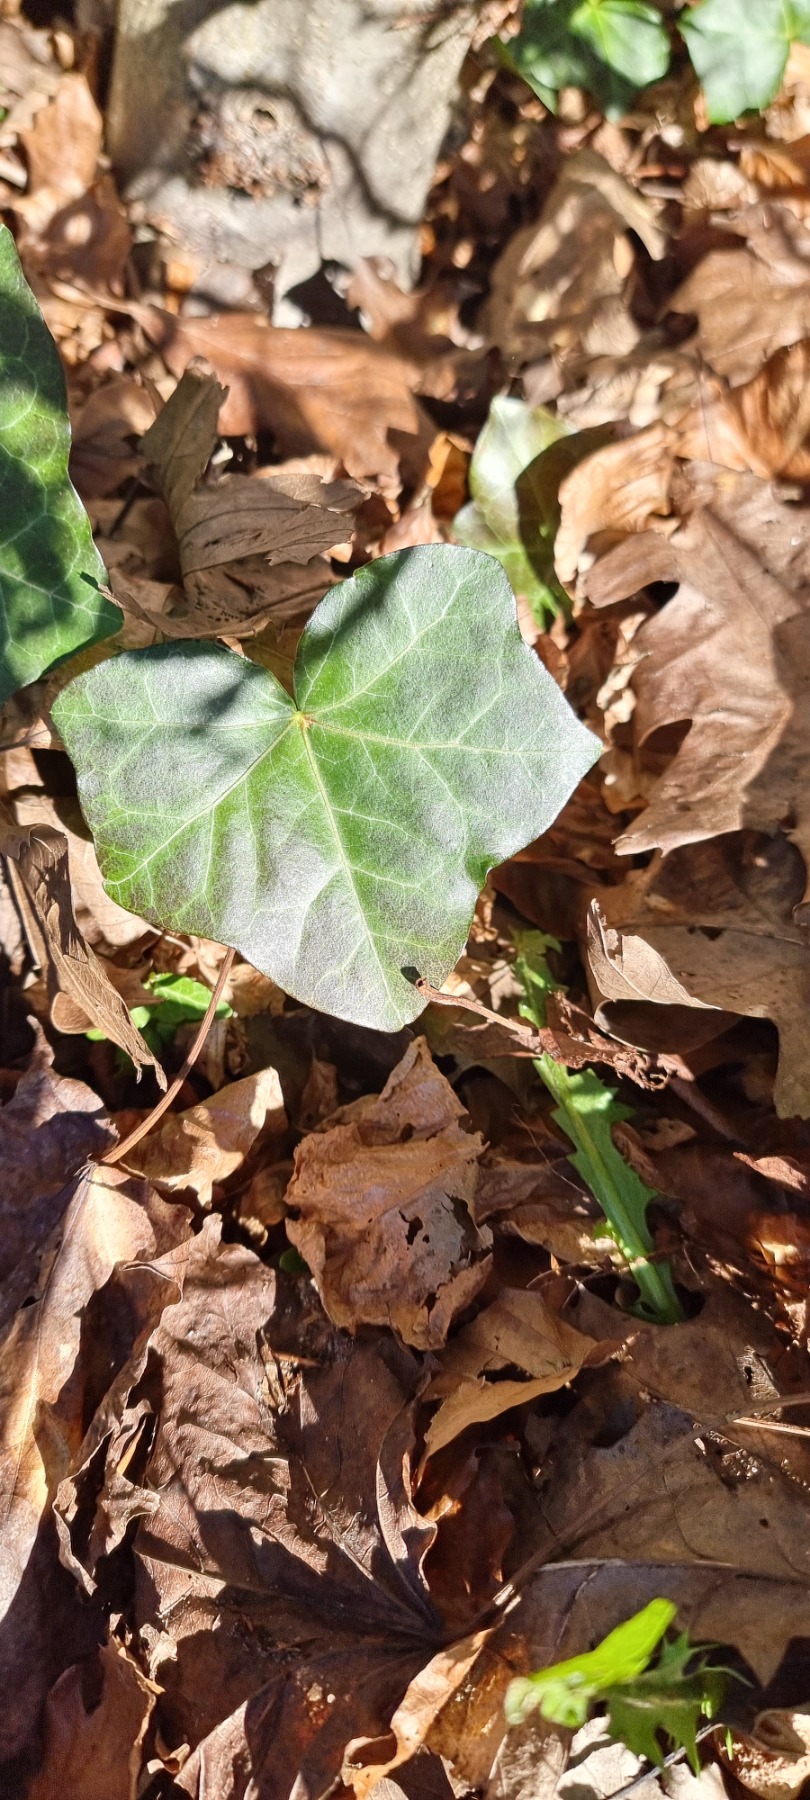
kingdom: Plantae
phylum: Tracheophyta
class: Magnoliopsida
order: Apiales
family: Araliaceae
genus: Hedera
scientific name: Hedera hibernica
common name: Irsk vedbend
